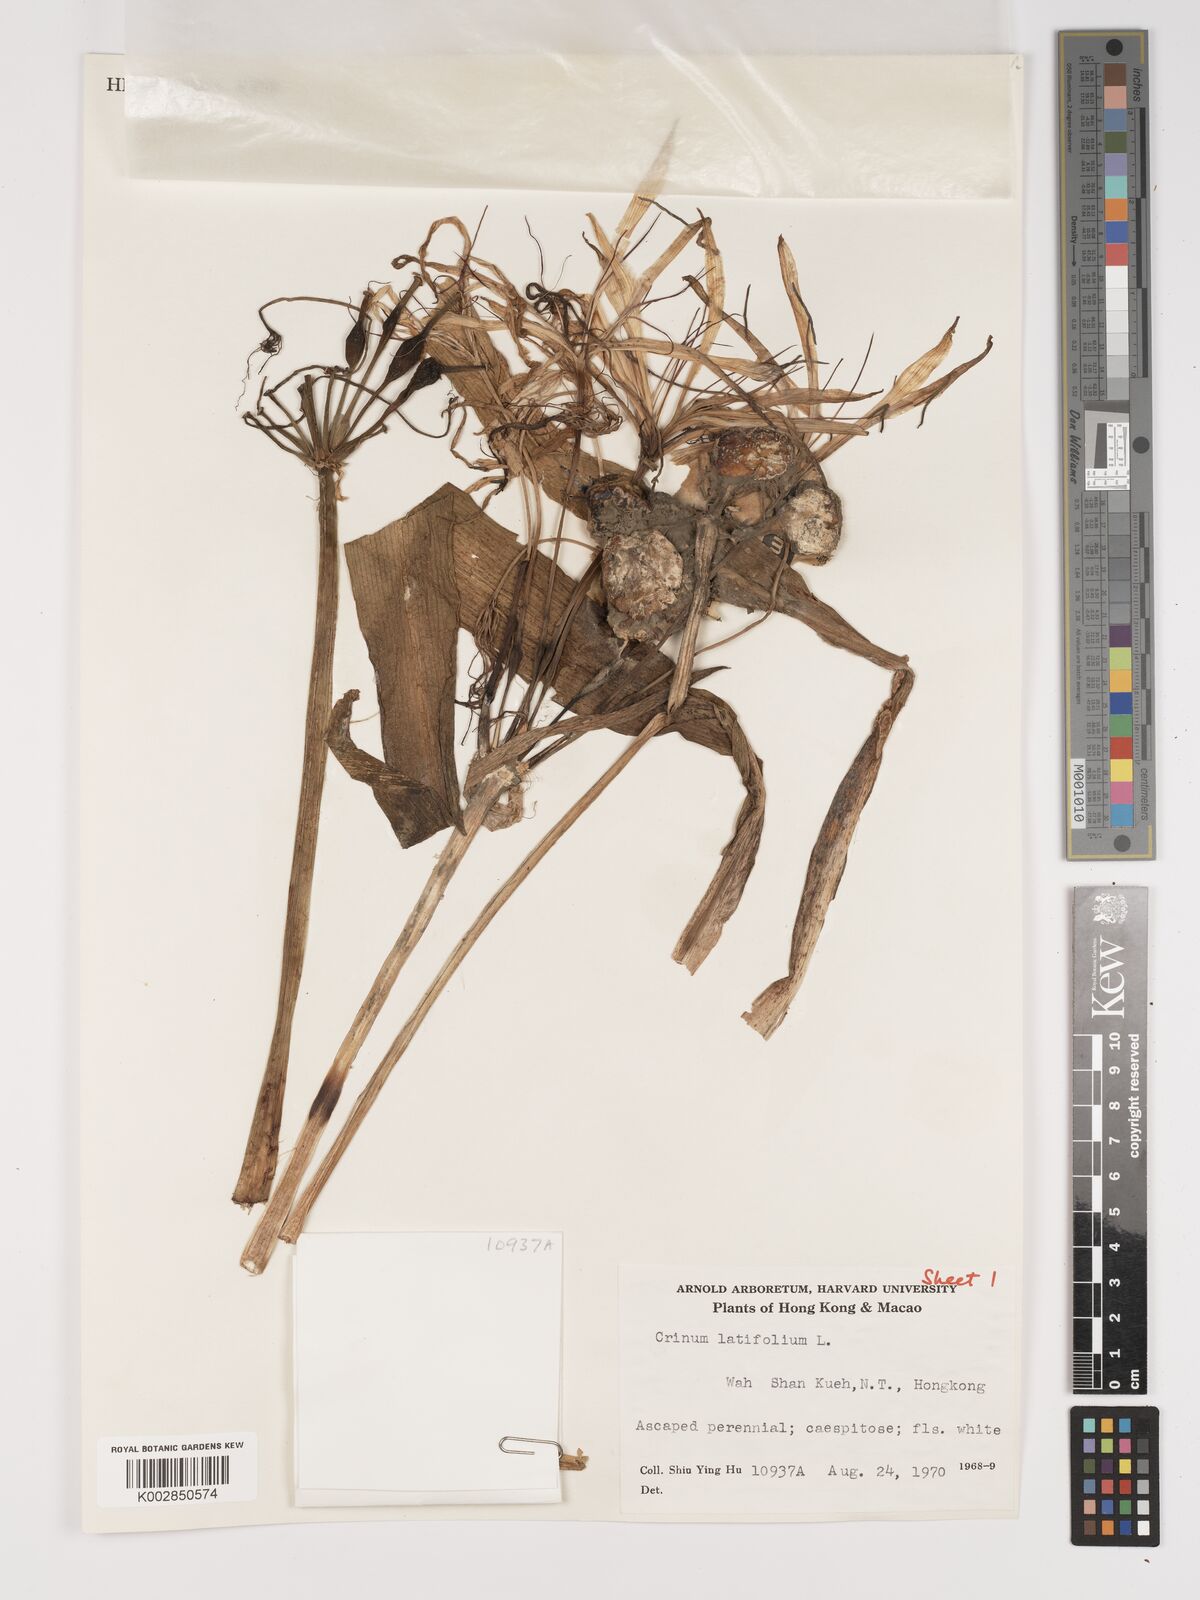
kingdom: Plantae
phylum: Tracheophyta
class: Liliopsida
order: Asparagales
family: Amaryllidaceae
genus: Crinum
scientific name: Crinum latifolium
